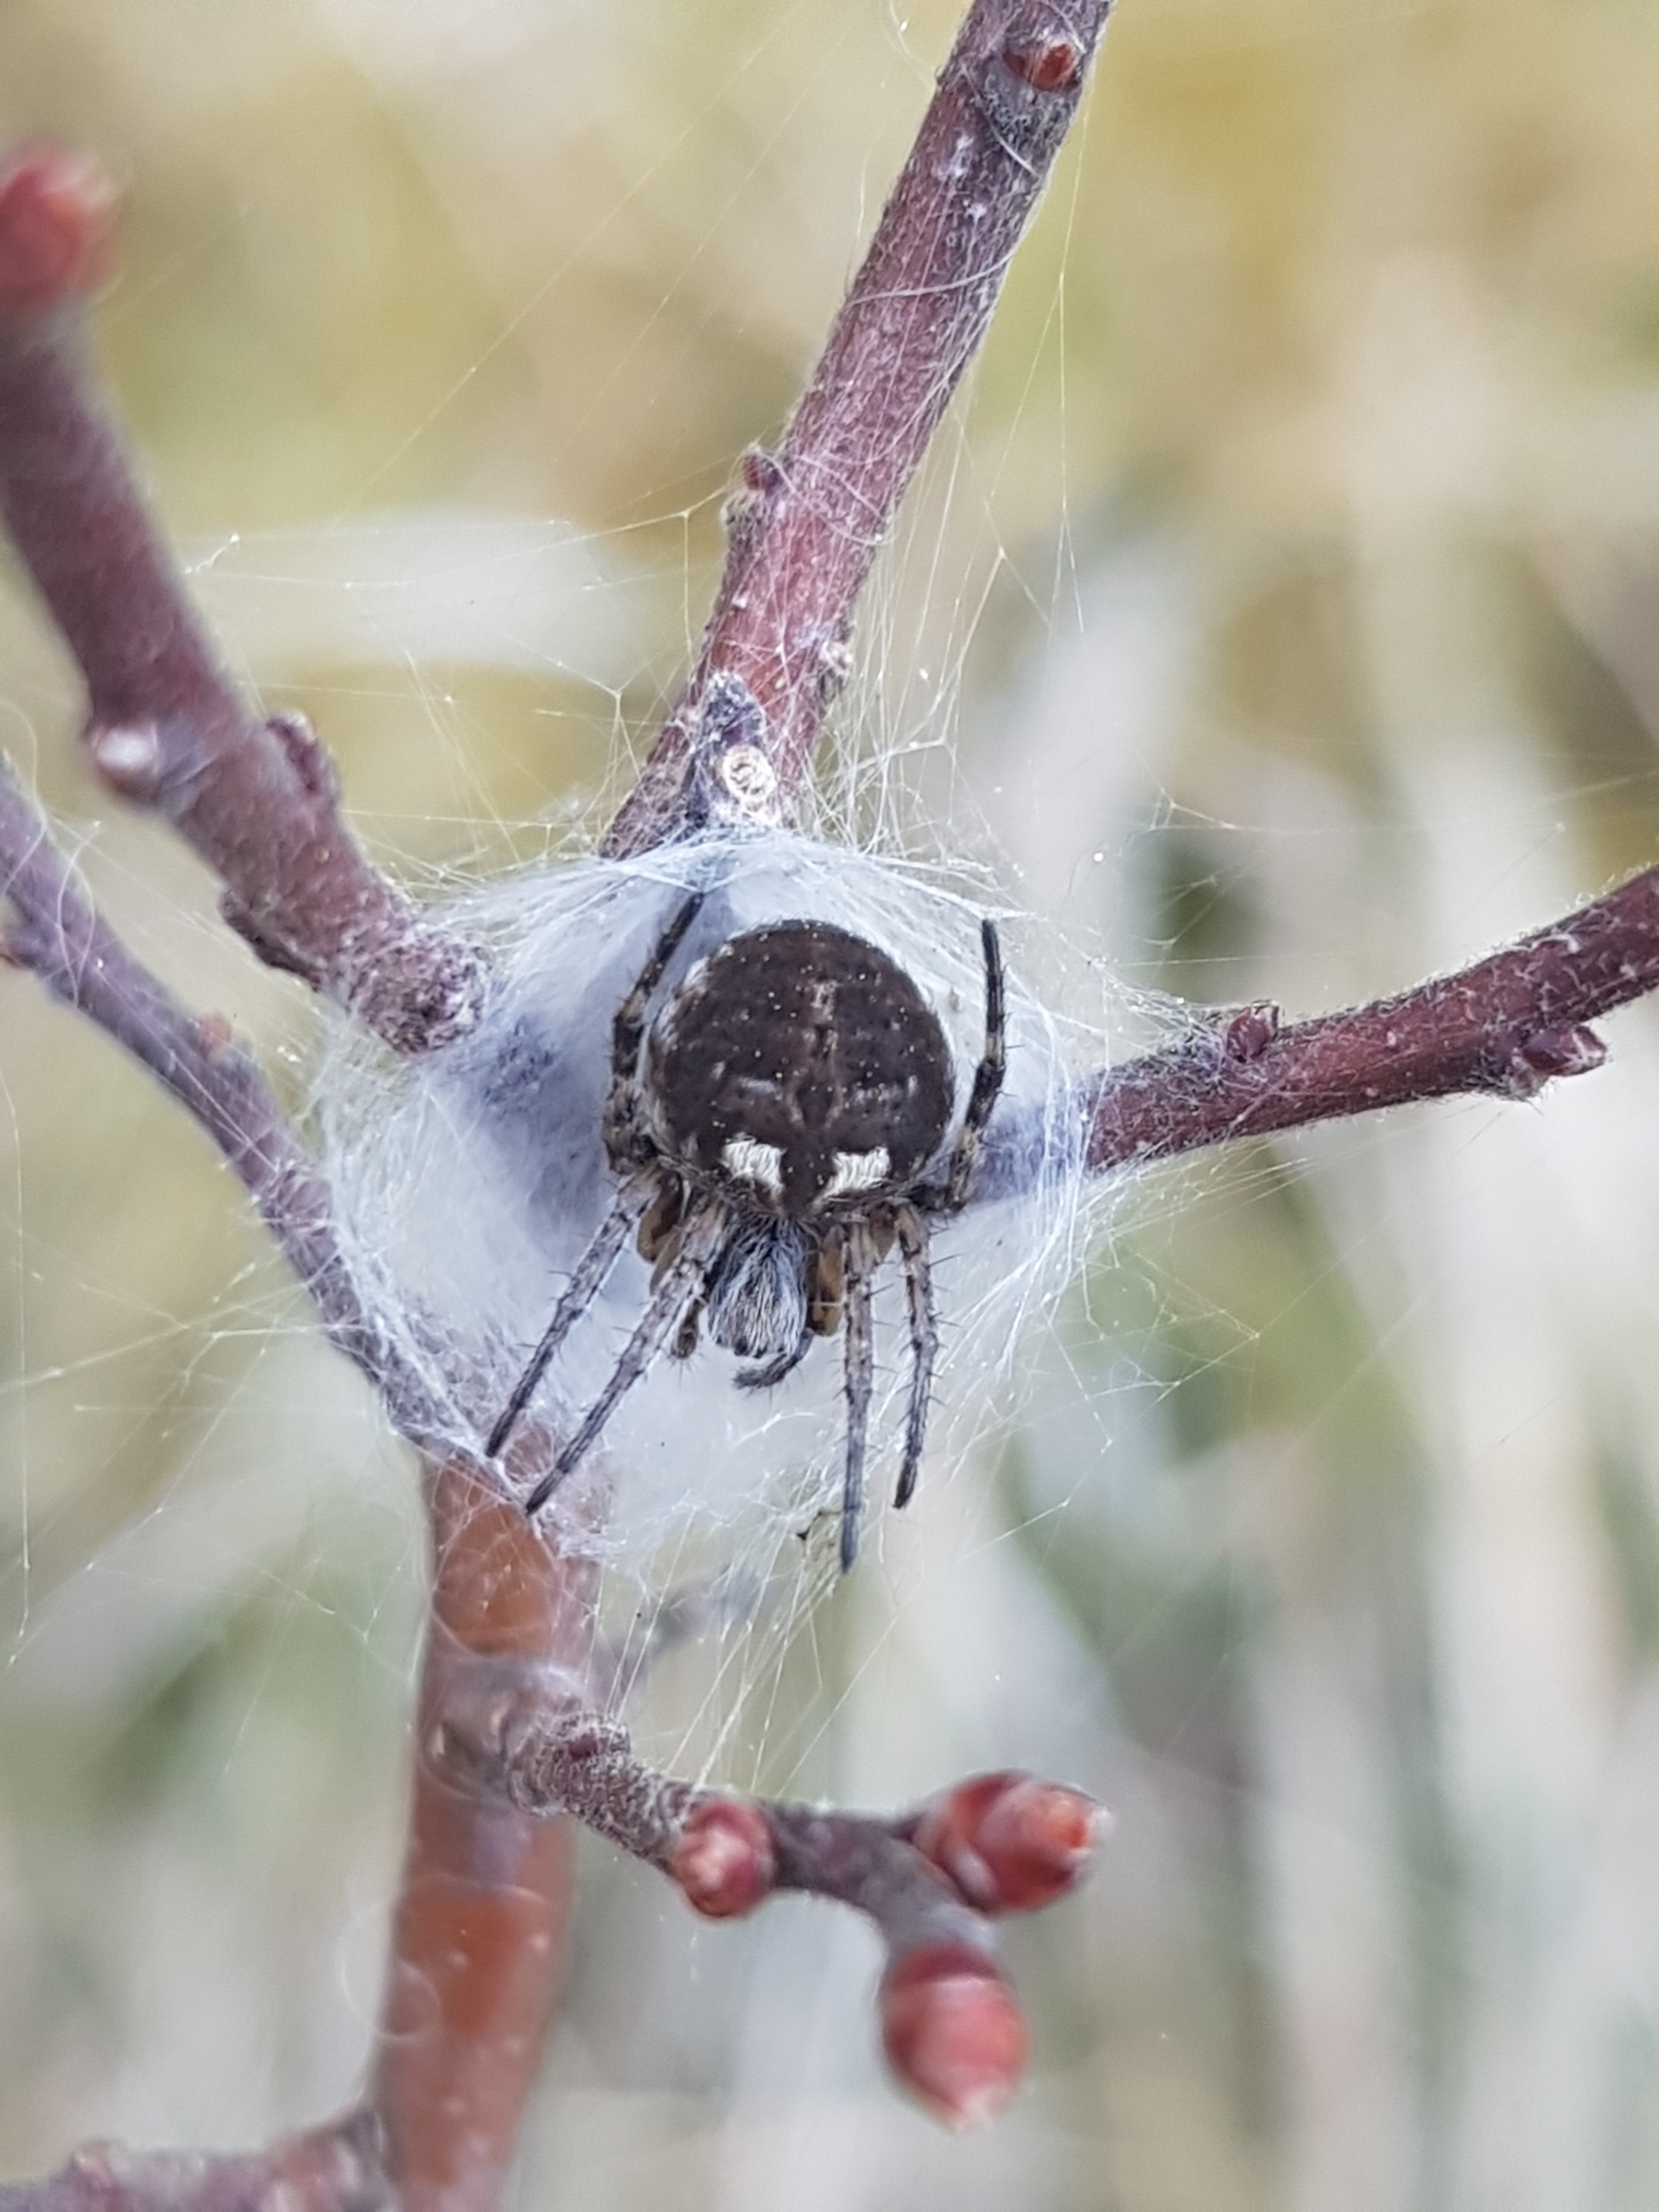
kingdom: Animalia
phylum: Arthropoda
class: Arachnida
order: Araneae
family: Araneidae
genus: Agalenatea
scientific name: Agalenatea redii
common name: Lodden hjulspinder
